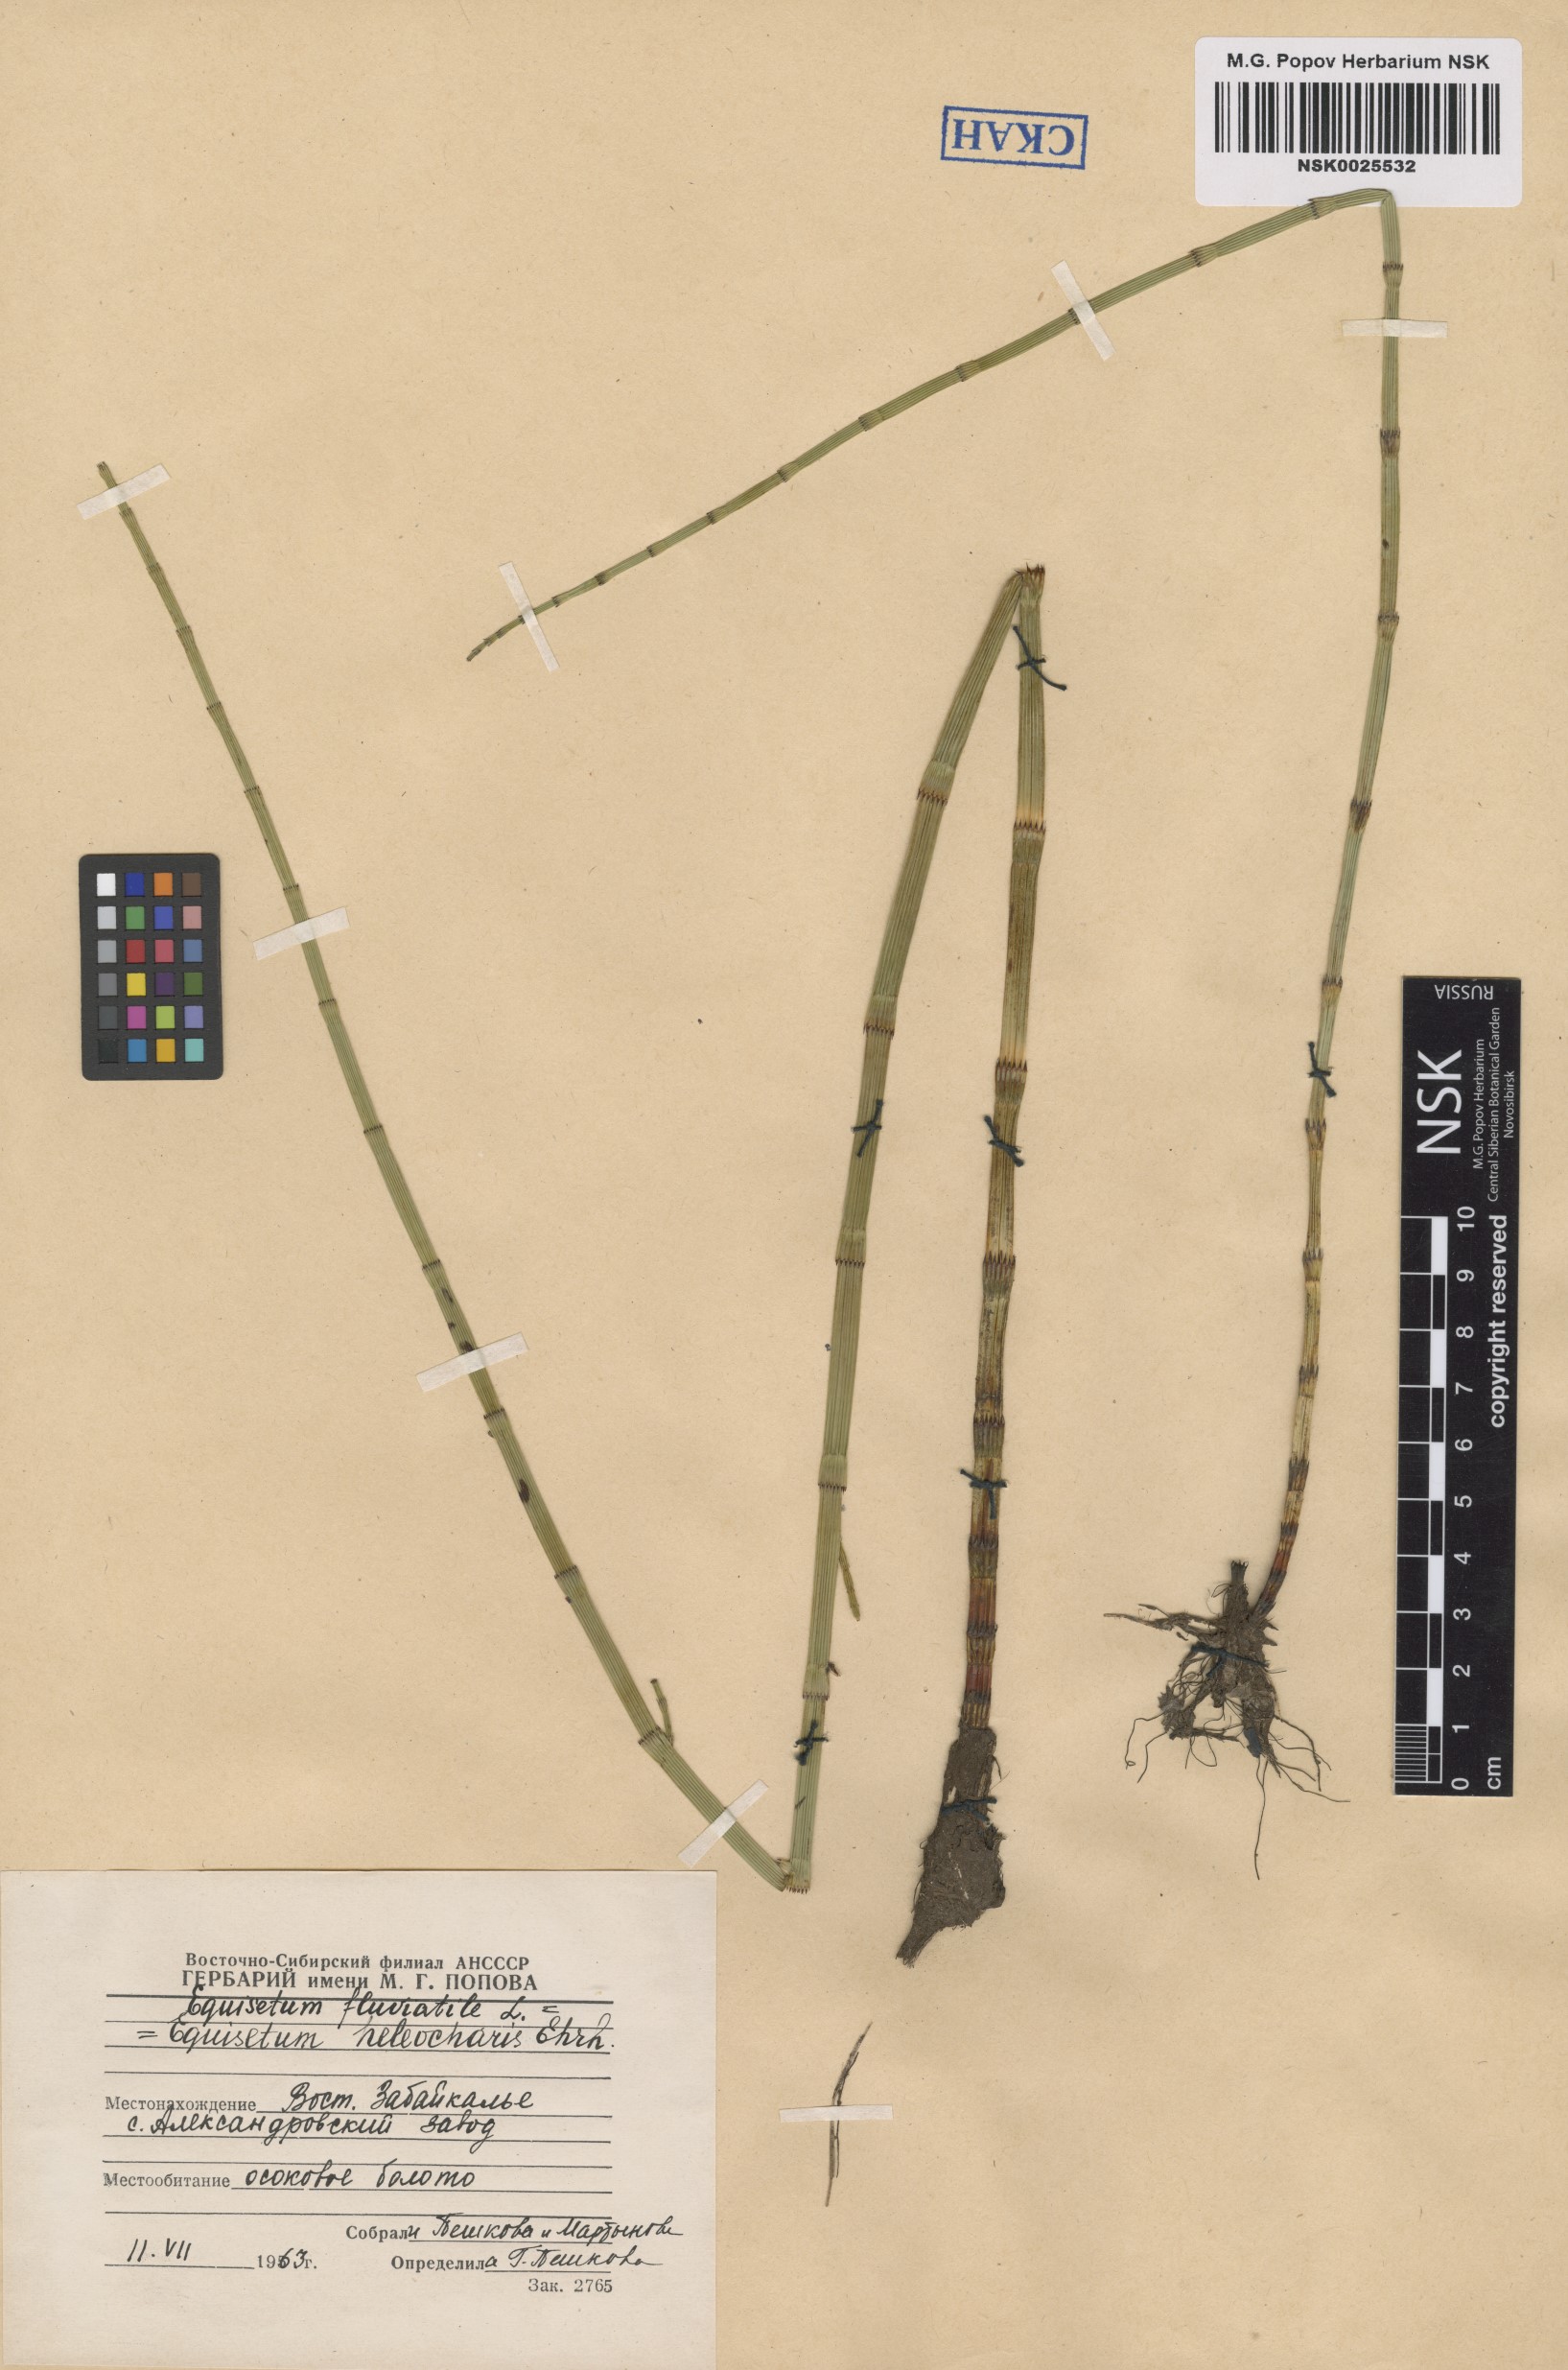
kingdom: Plantae
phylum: Tracheophyta
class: Polypodiopsida
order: Equisetales
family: Equisetaceae
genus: Equisetum
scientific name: Equisetum fluviatile
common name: Water horsetail
